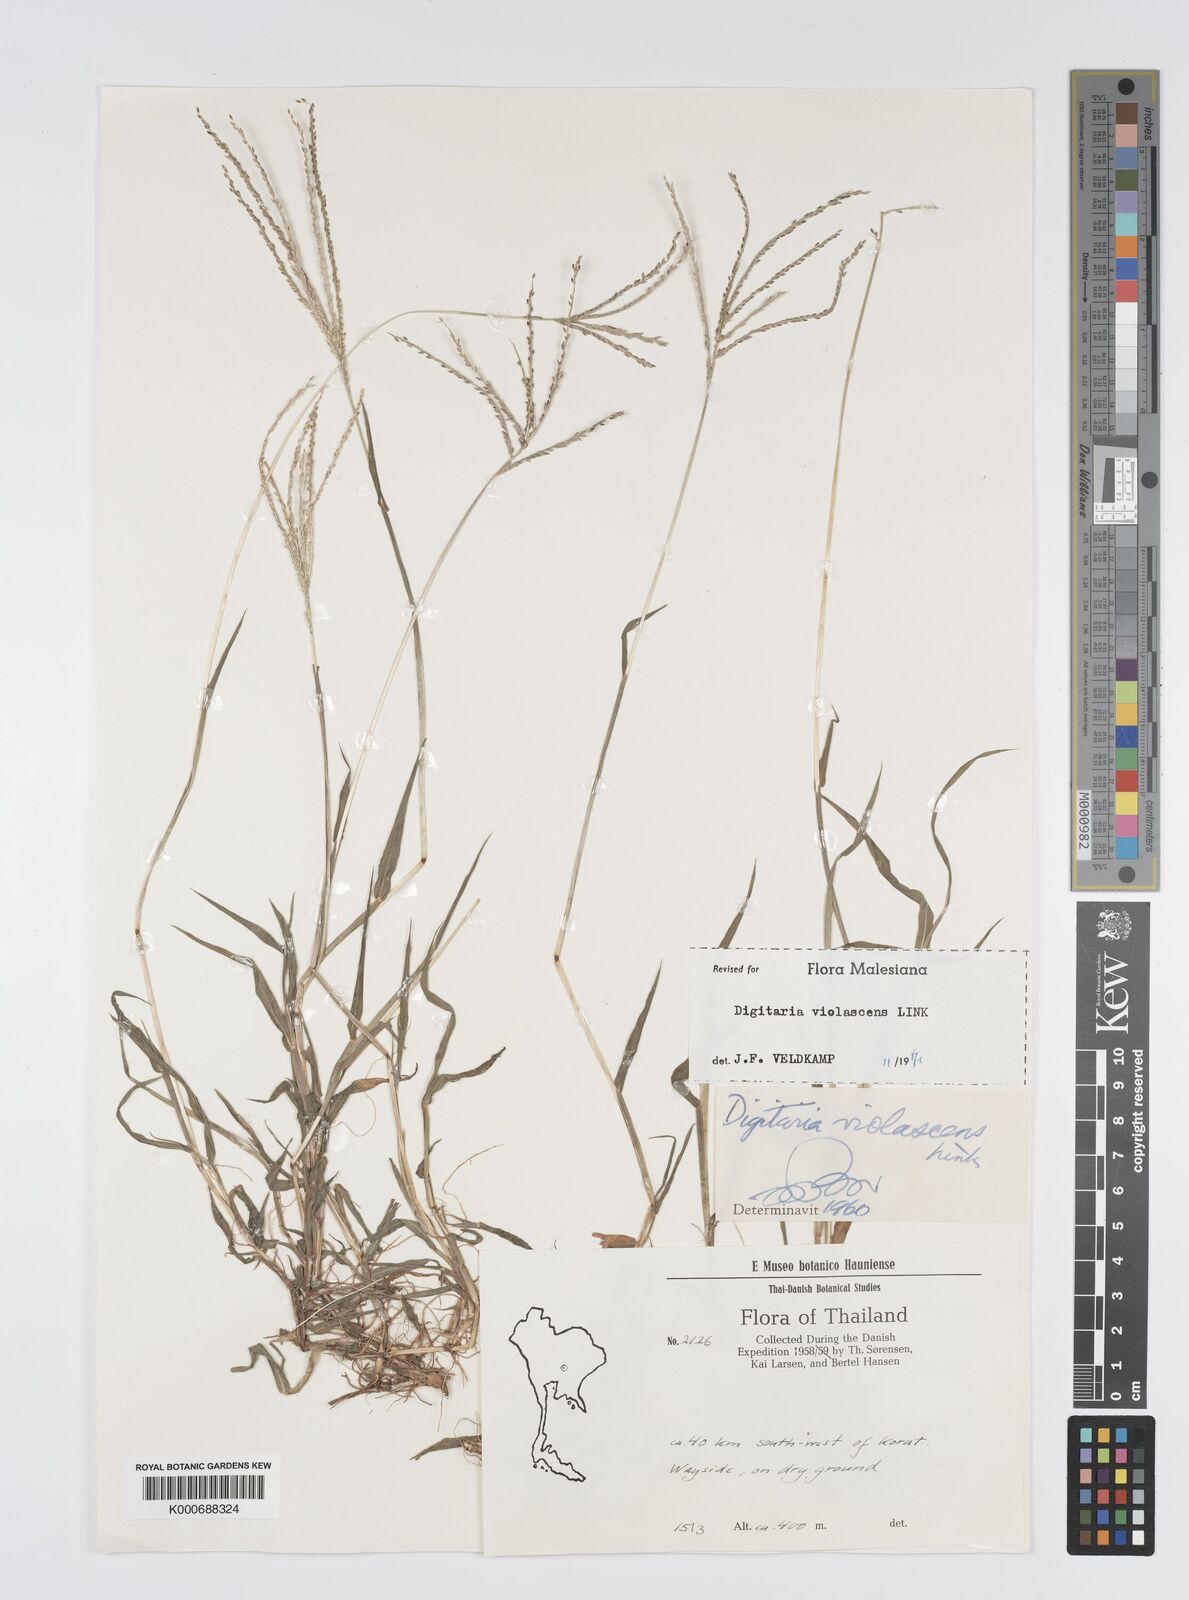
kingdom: Plantae
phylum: Tracheophyta
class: Liliopsida
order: Poales
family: Poaceae
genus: Digitaria
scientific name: Digitaria violascens
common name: Violet crabgrass
